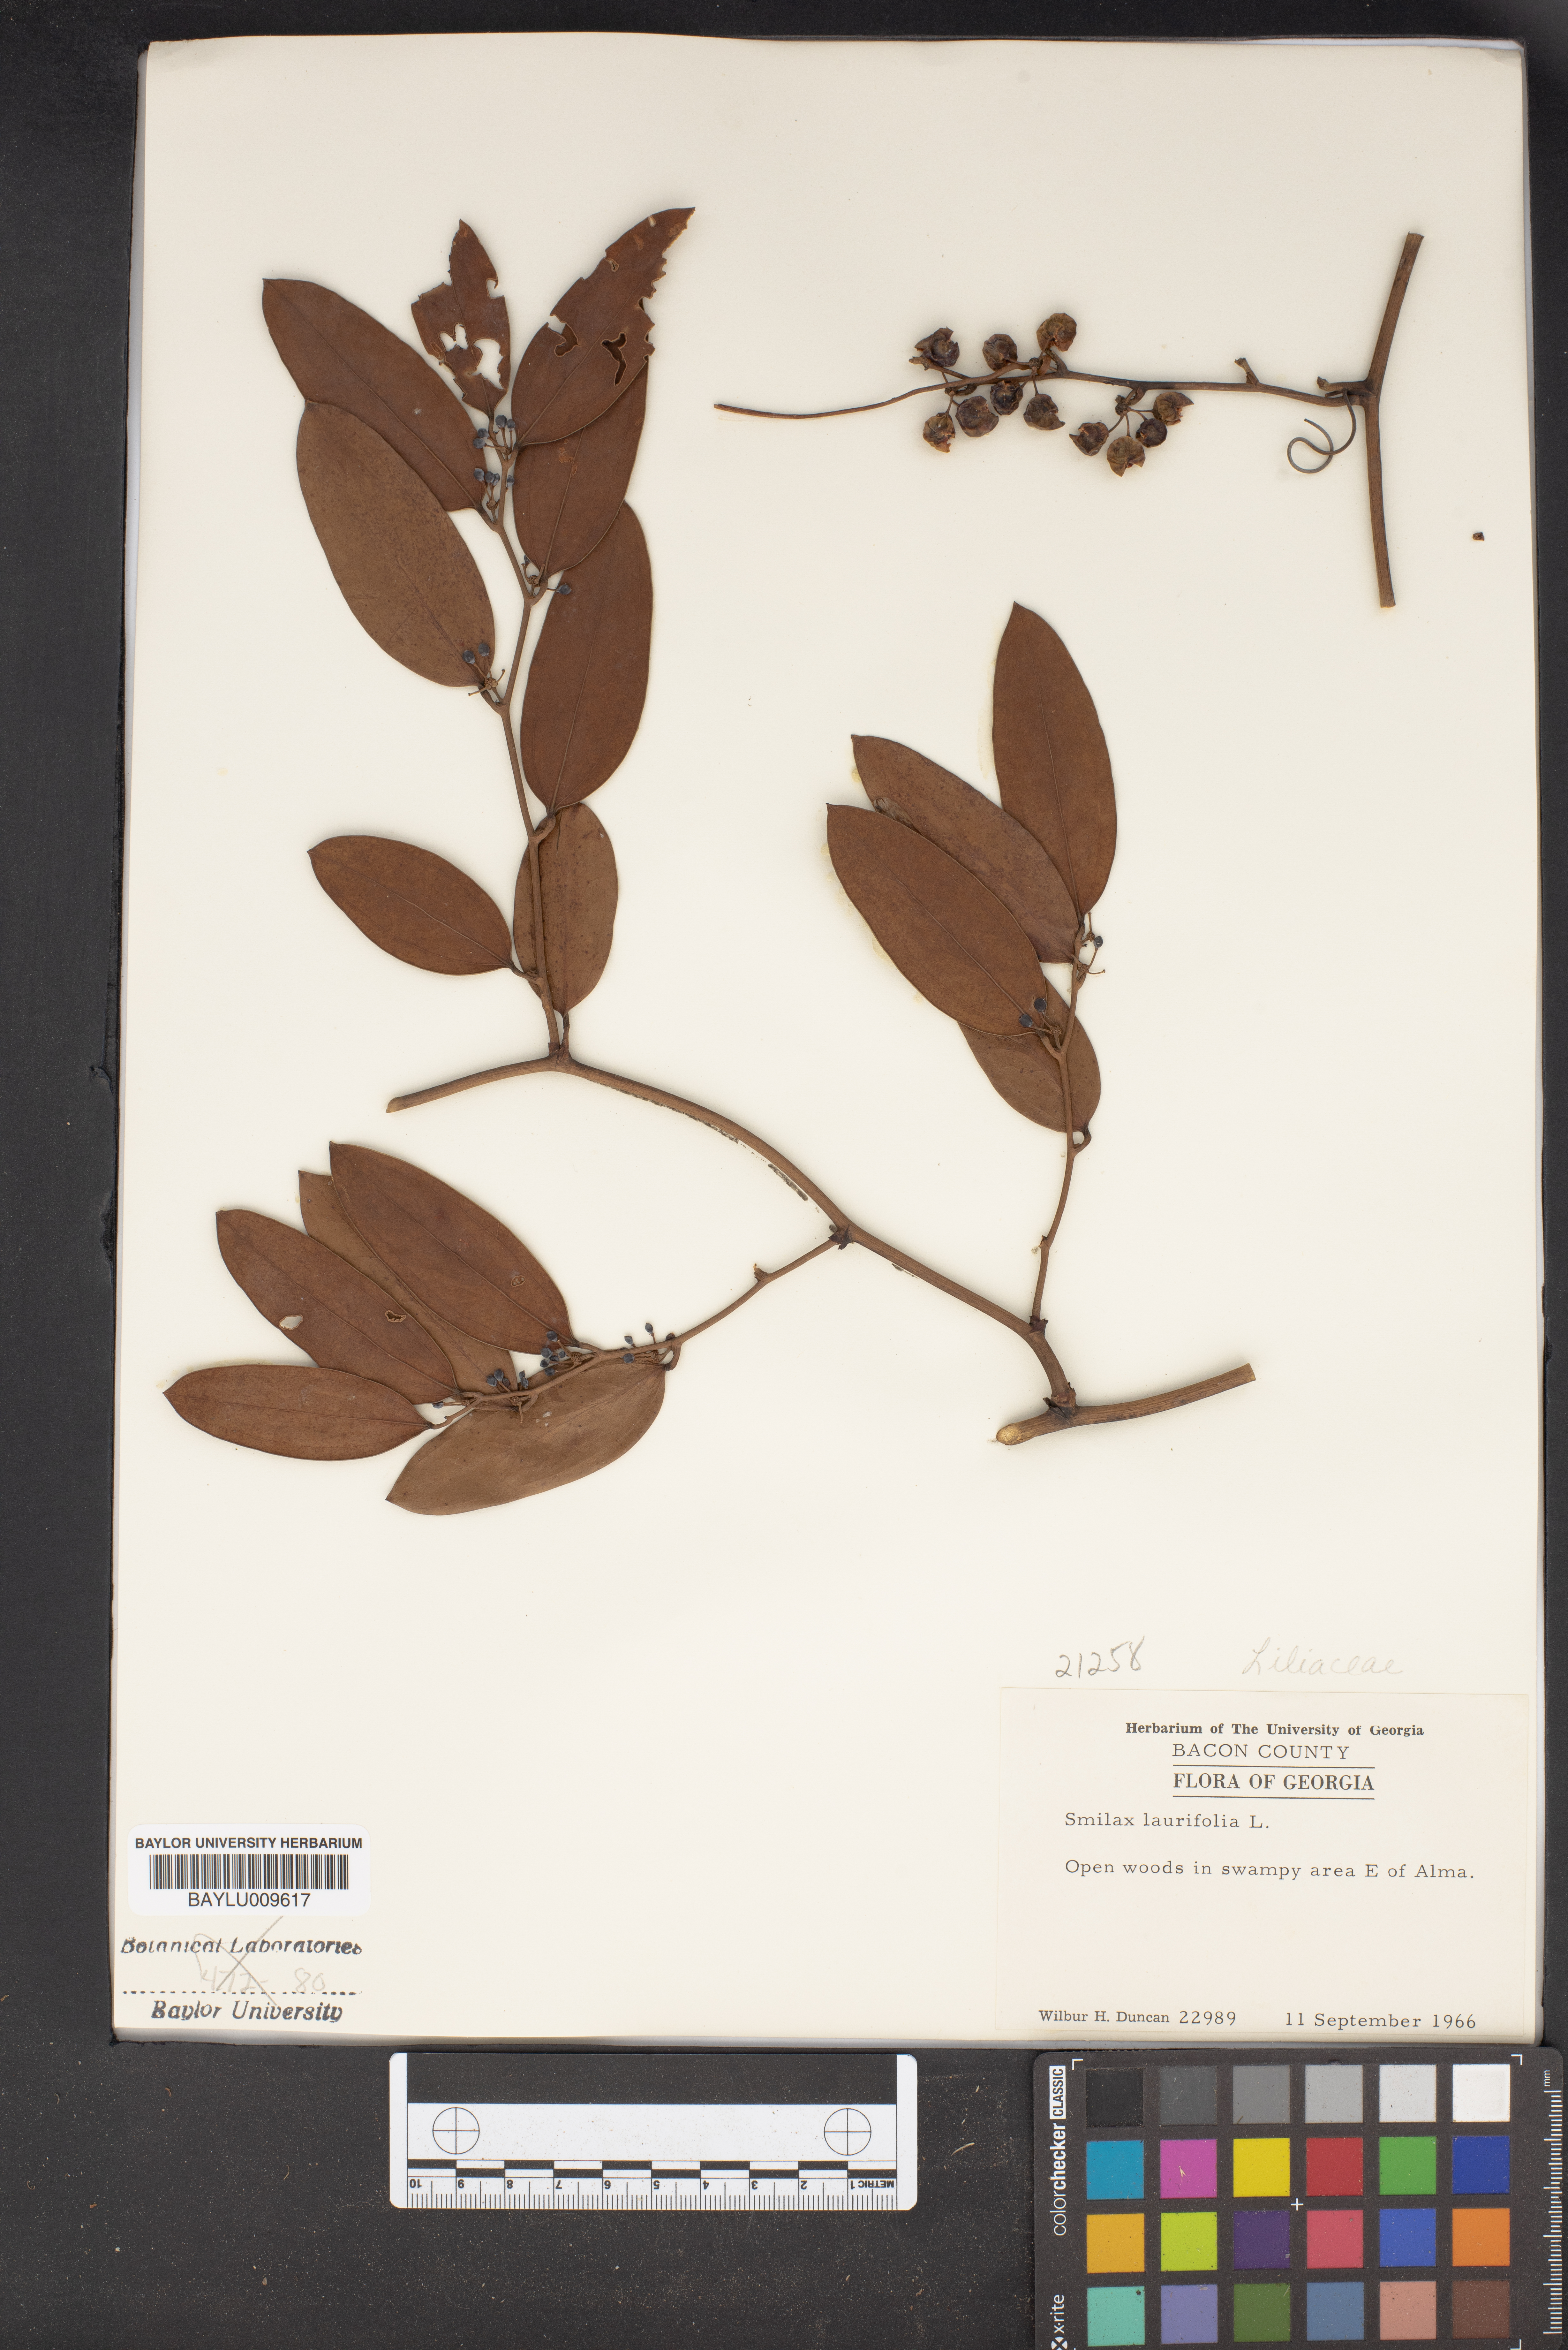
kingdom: Plantae
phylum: Tracheophyta
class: Liliopsida
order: Liliales
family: Smilacaceae
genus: Smilax
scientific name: Smilax laurifolia
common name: Bamboovine
